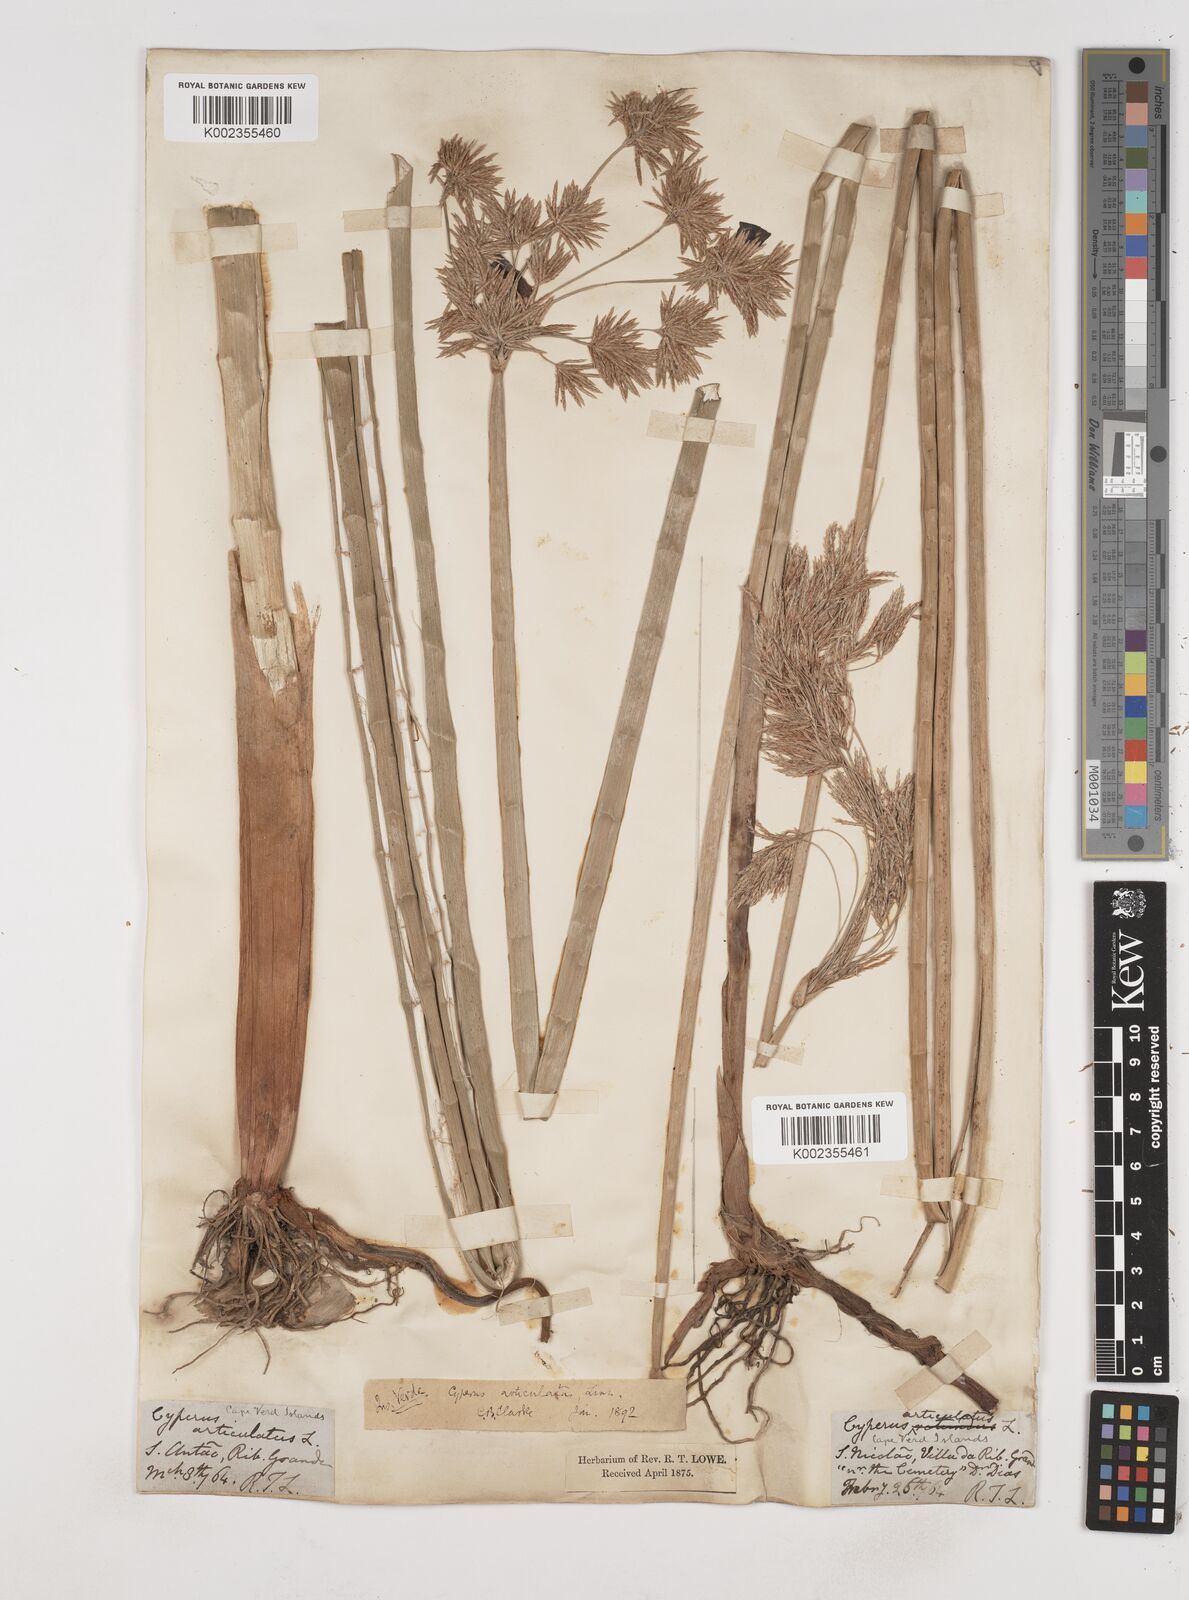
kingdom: Plantae
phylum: Tracheophyta
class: Liliopsida
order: Poales
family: Cyperaceae
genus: Cyperus
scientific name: Cyperus articulatus
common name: Jointed flatsedge
